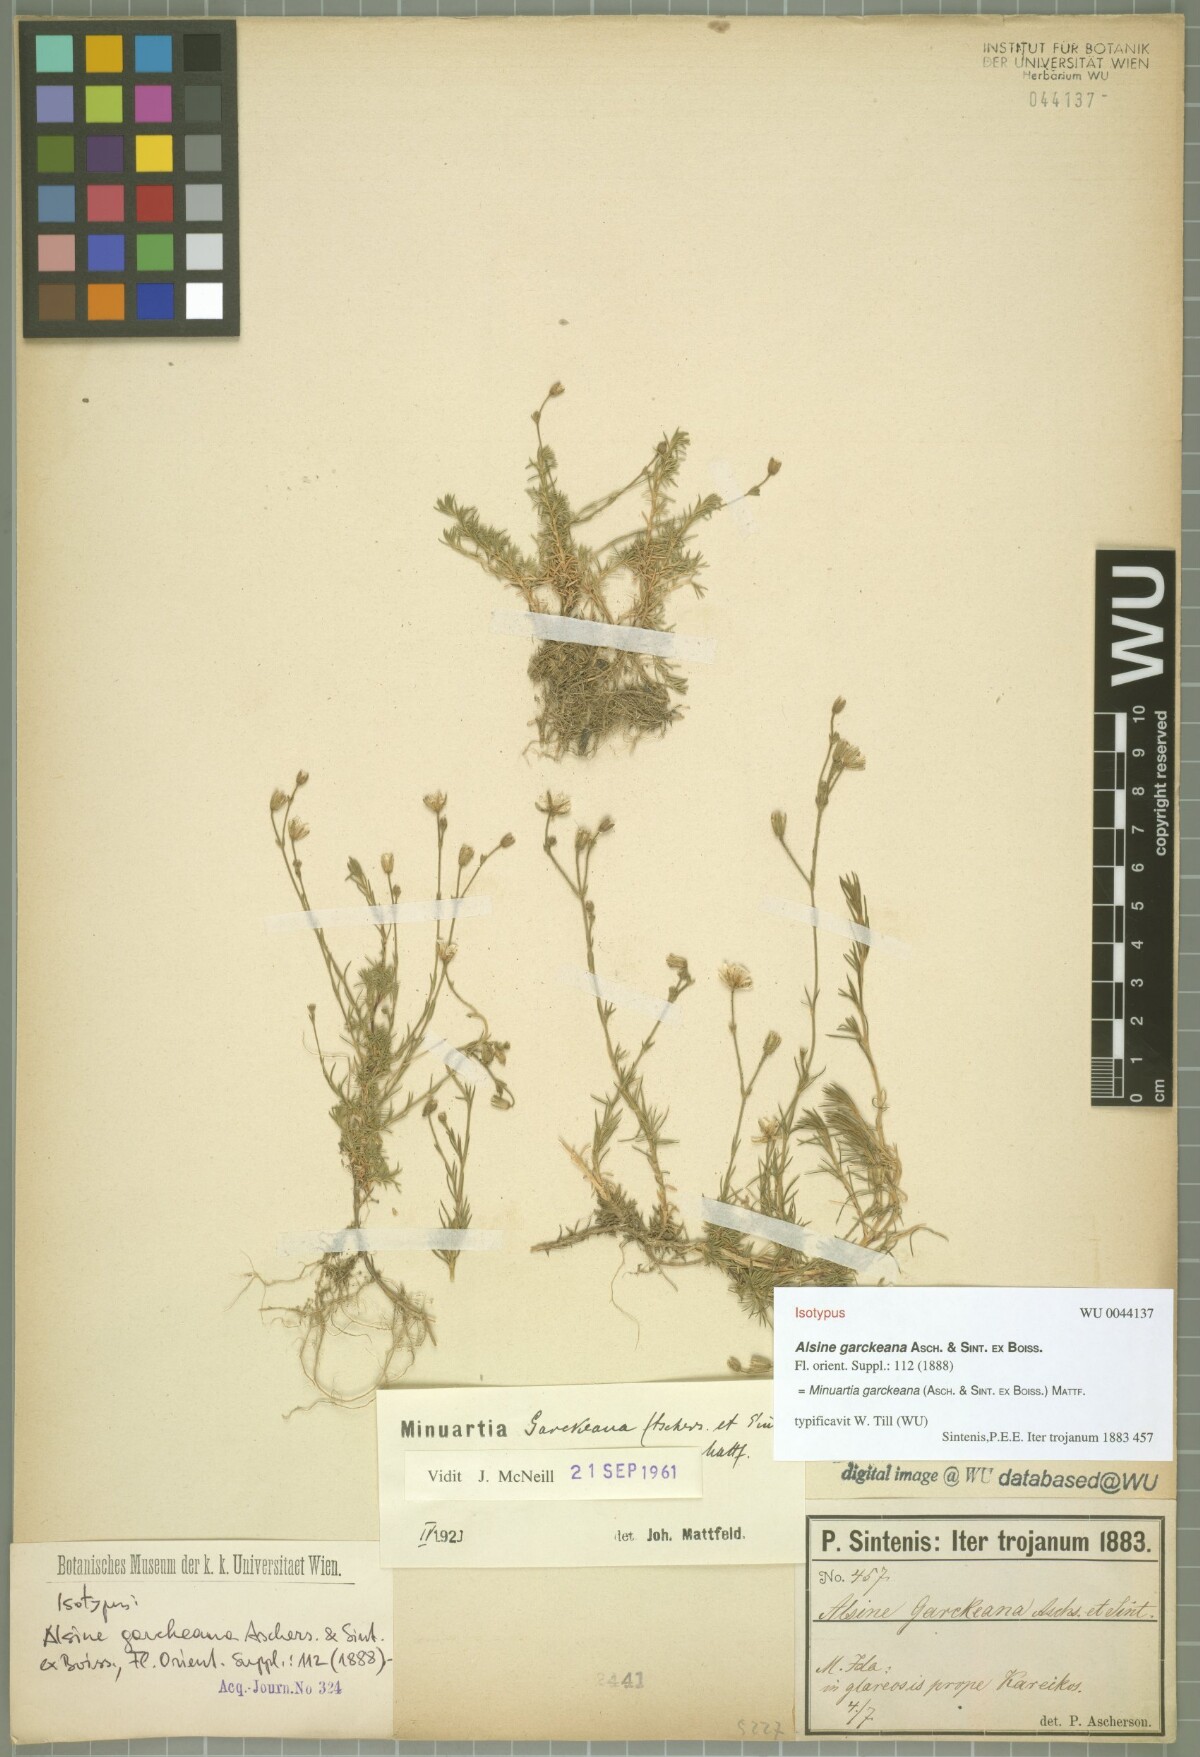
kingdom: Plantae
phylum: Tracheophyta
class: Magnoliopsida
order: Caryophyllales
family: Caryophyllaceae
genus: Cherleria
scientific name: Cherleria garckeana
